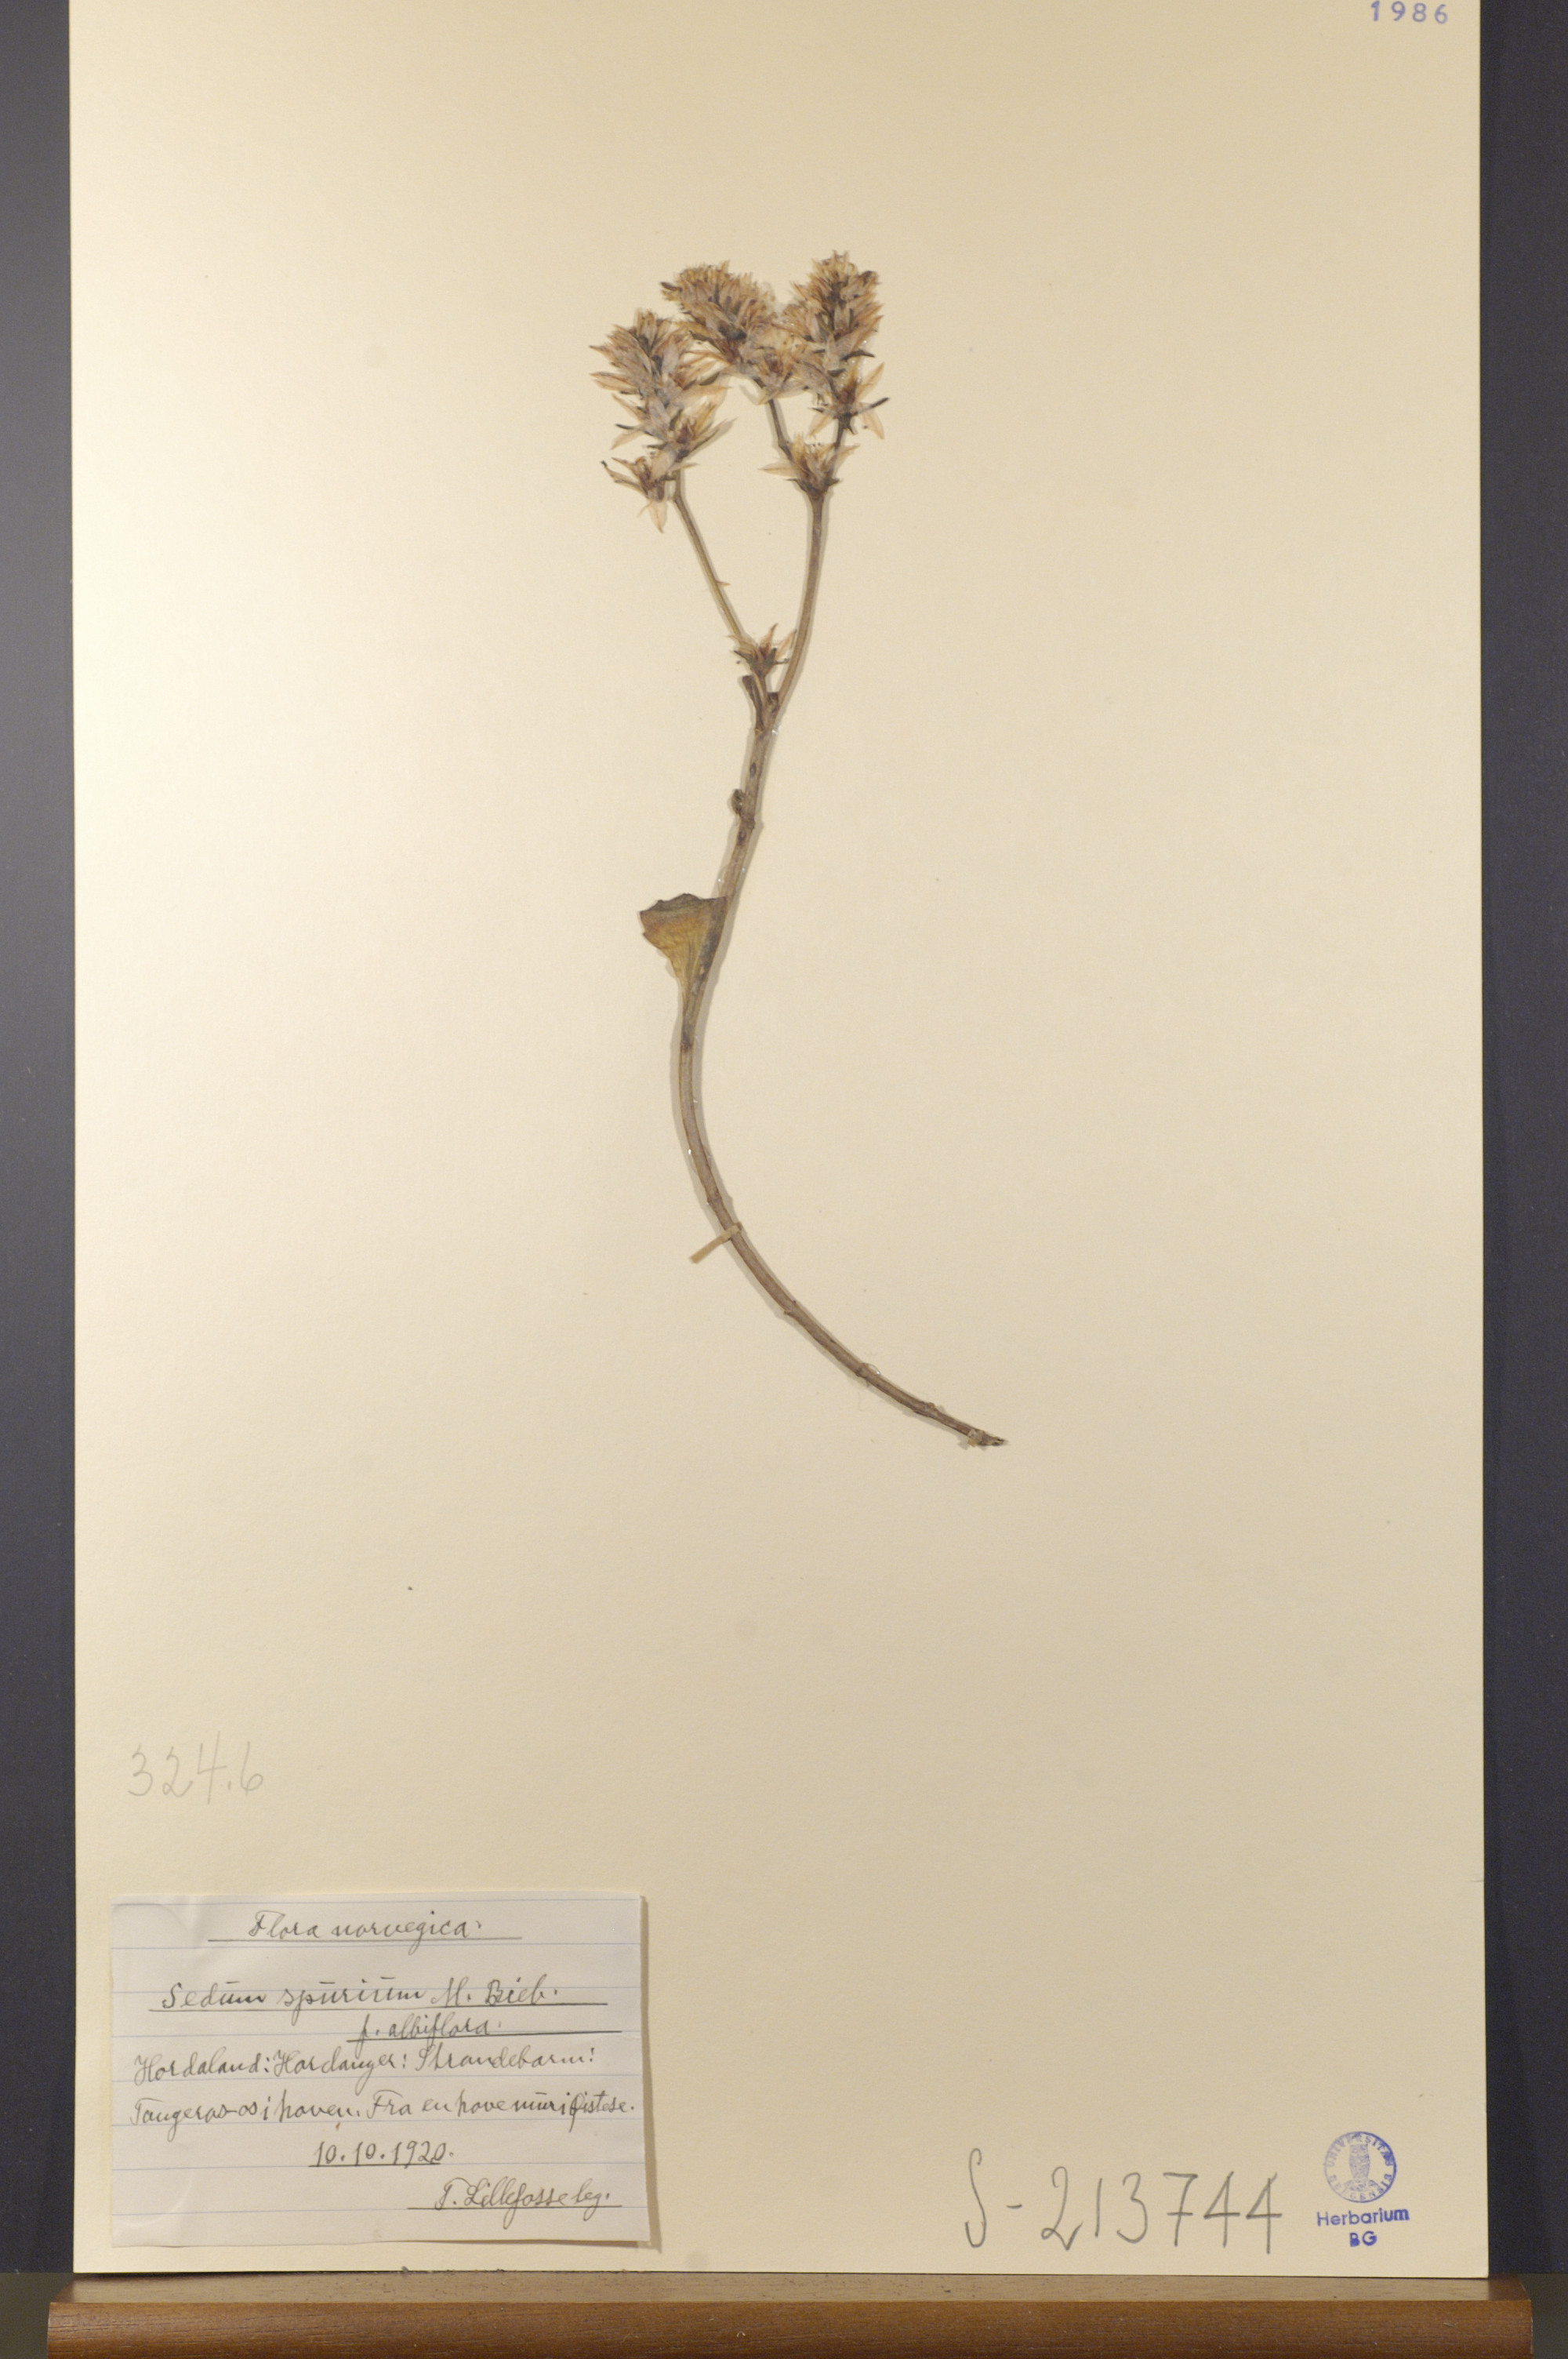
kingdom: Plantae
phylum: Tracheophyta
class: Magnoliopsida
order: Saxifragales
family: Crassulaceae
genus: Phedimus
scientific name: Phedimus spurius
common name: Caucasian stonecrop
